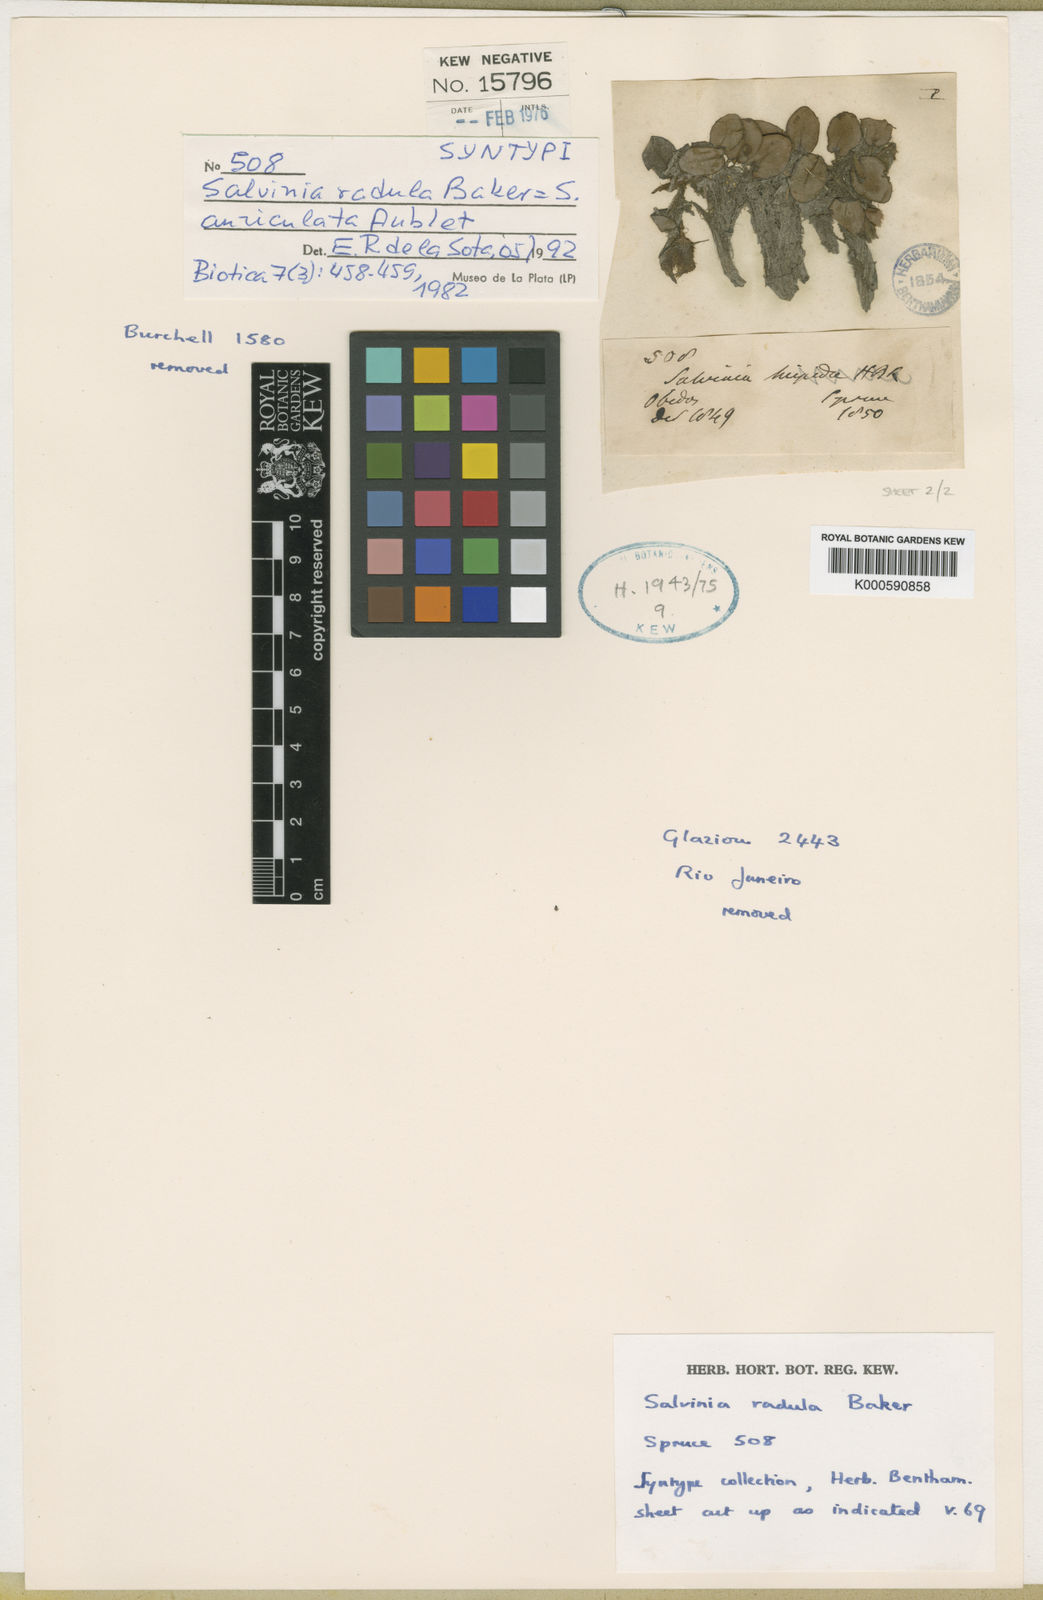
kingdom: Plantae
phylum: Tracheophyta
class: Polypodiopsida
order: Salviniales
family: Salviniaceae
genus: Salvinia
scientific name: Salvinia auriculata
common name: African payal
